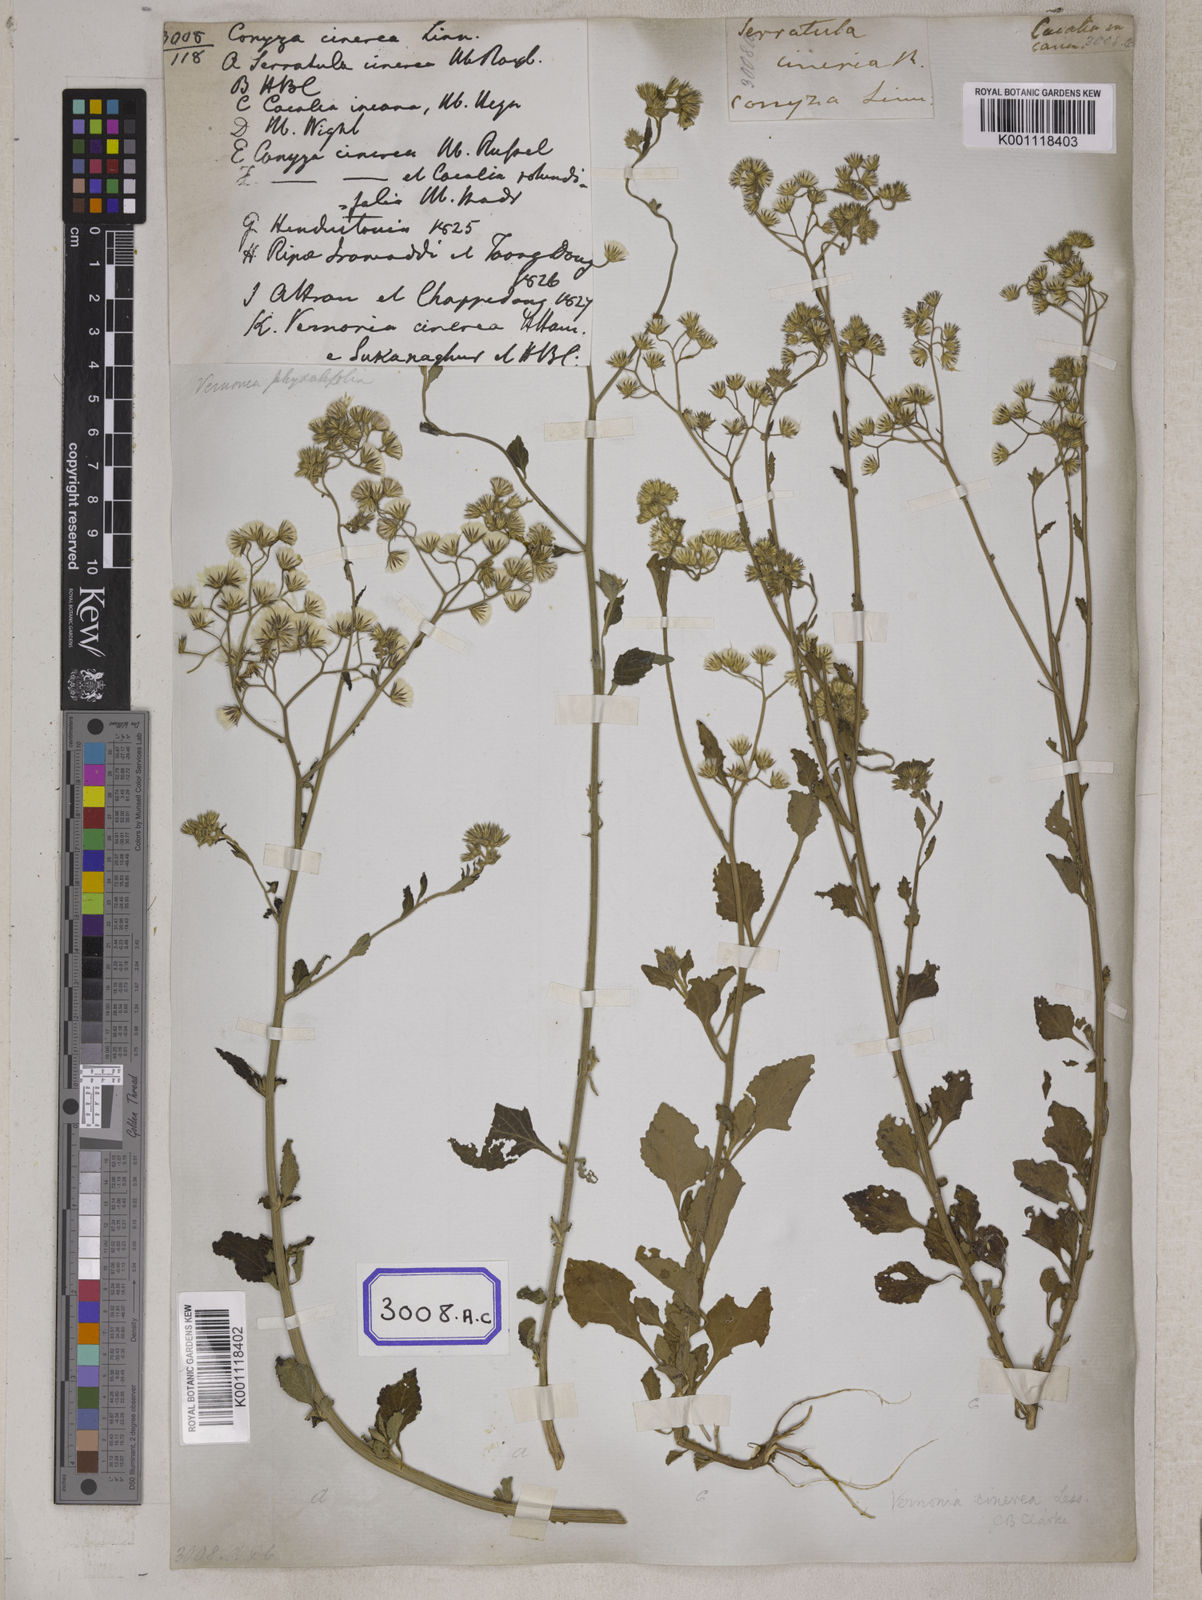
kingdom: Plantae
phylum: Tracheophyta
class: Magnoliopsida
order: Asterales
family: Asteraceae
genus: Cyanthillium
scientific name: Cyanthillium cinereum
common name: Little ironweed
